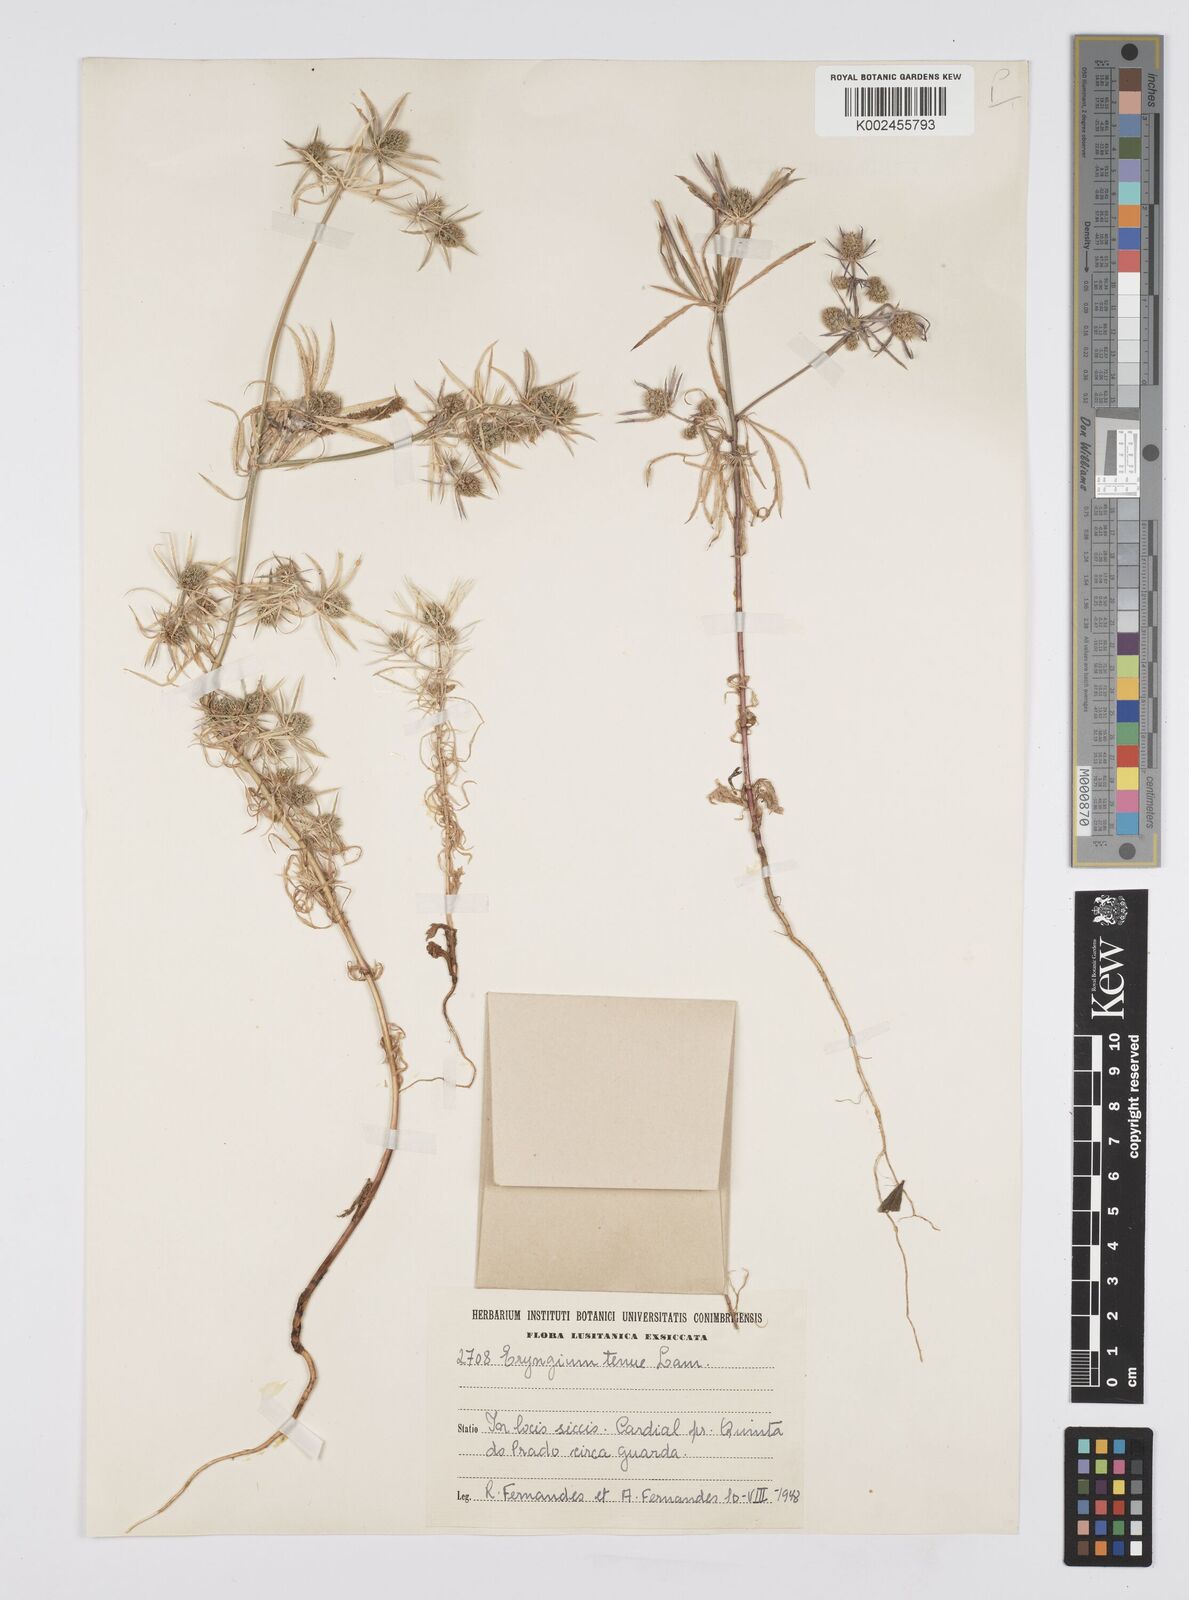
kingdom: Plantae
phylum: Tracheophyta
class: Magnoliopsida
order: Apiales
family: Apiaceae
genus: Eryngium
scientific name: Eryngium
